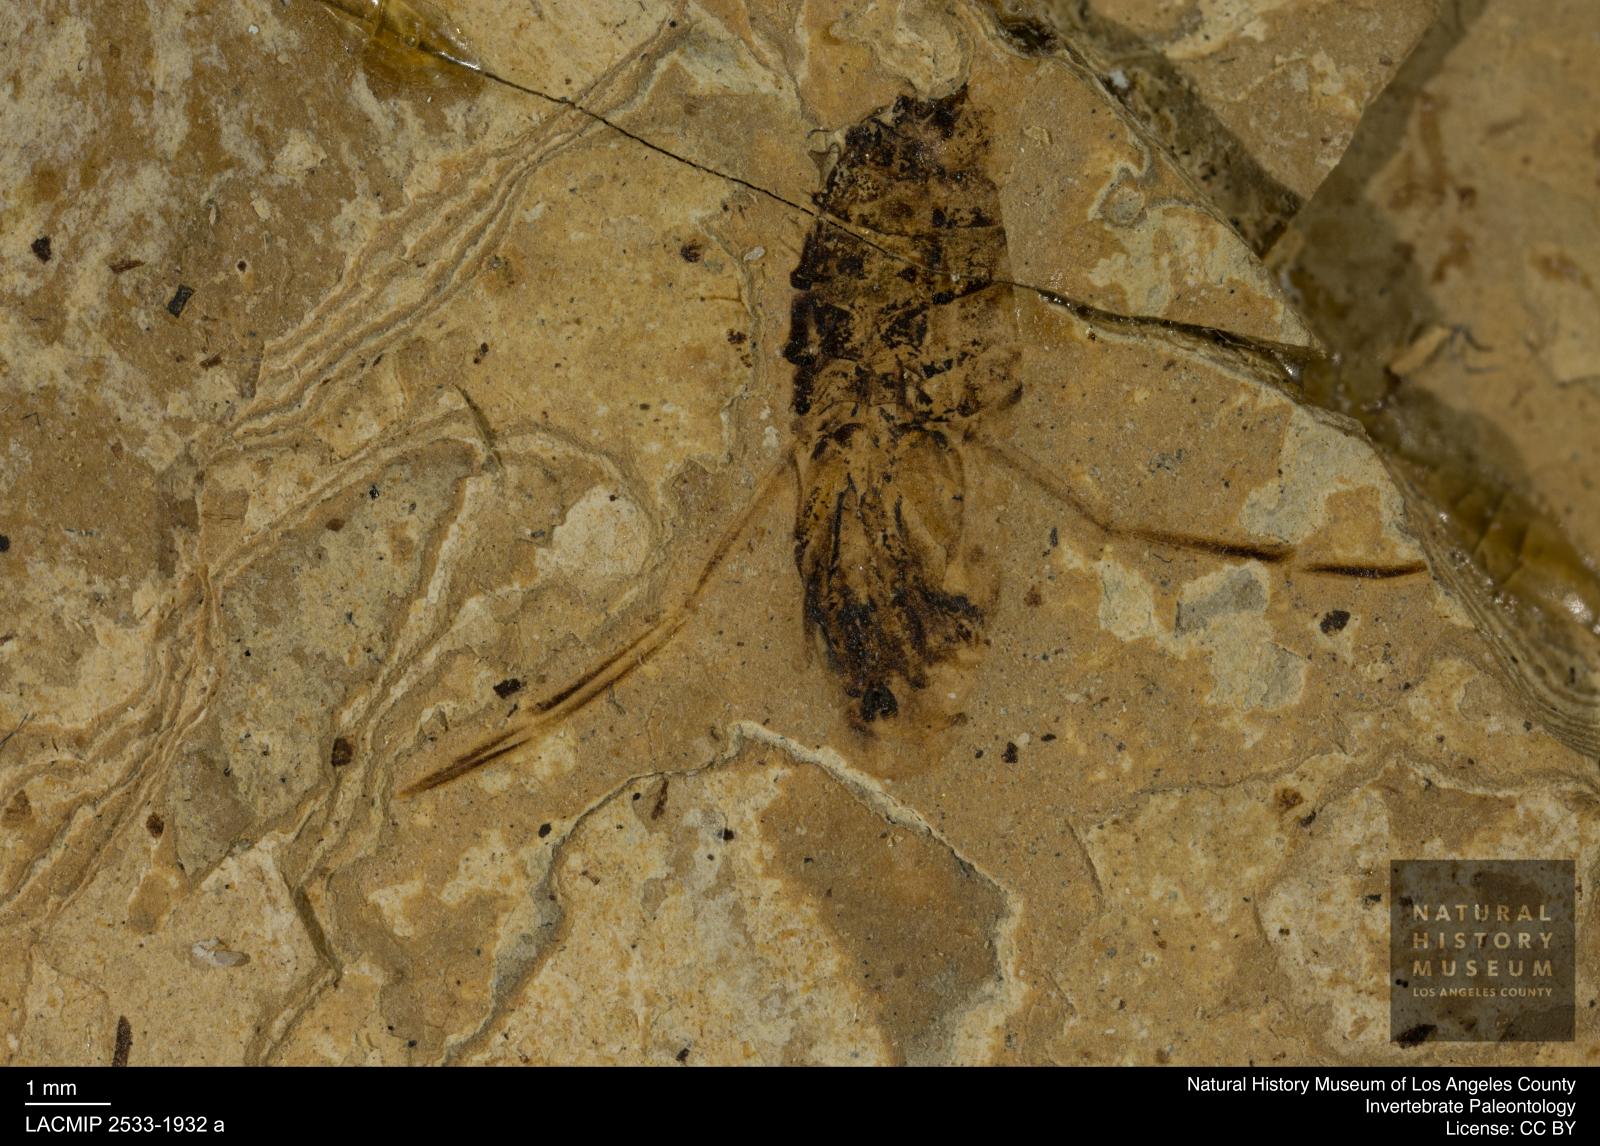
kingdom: Animalia
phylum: Arthropoda
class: Insecta
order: Hemiptera
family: Notonectidae
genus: Anisops
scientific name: Anisops Notonecta deichmuelleri
